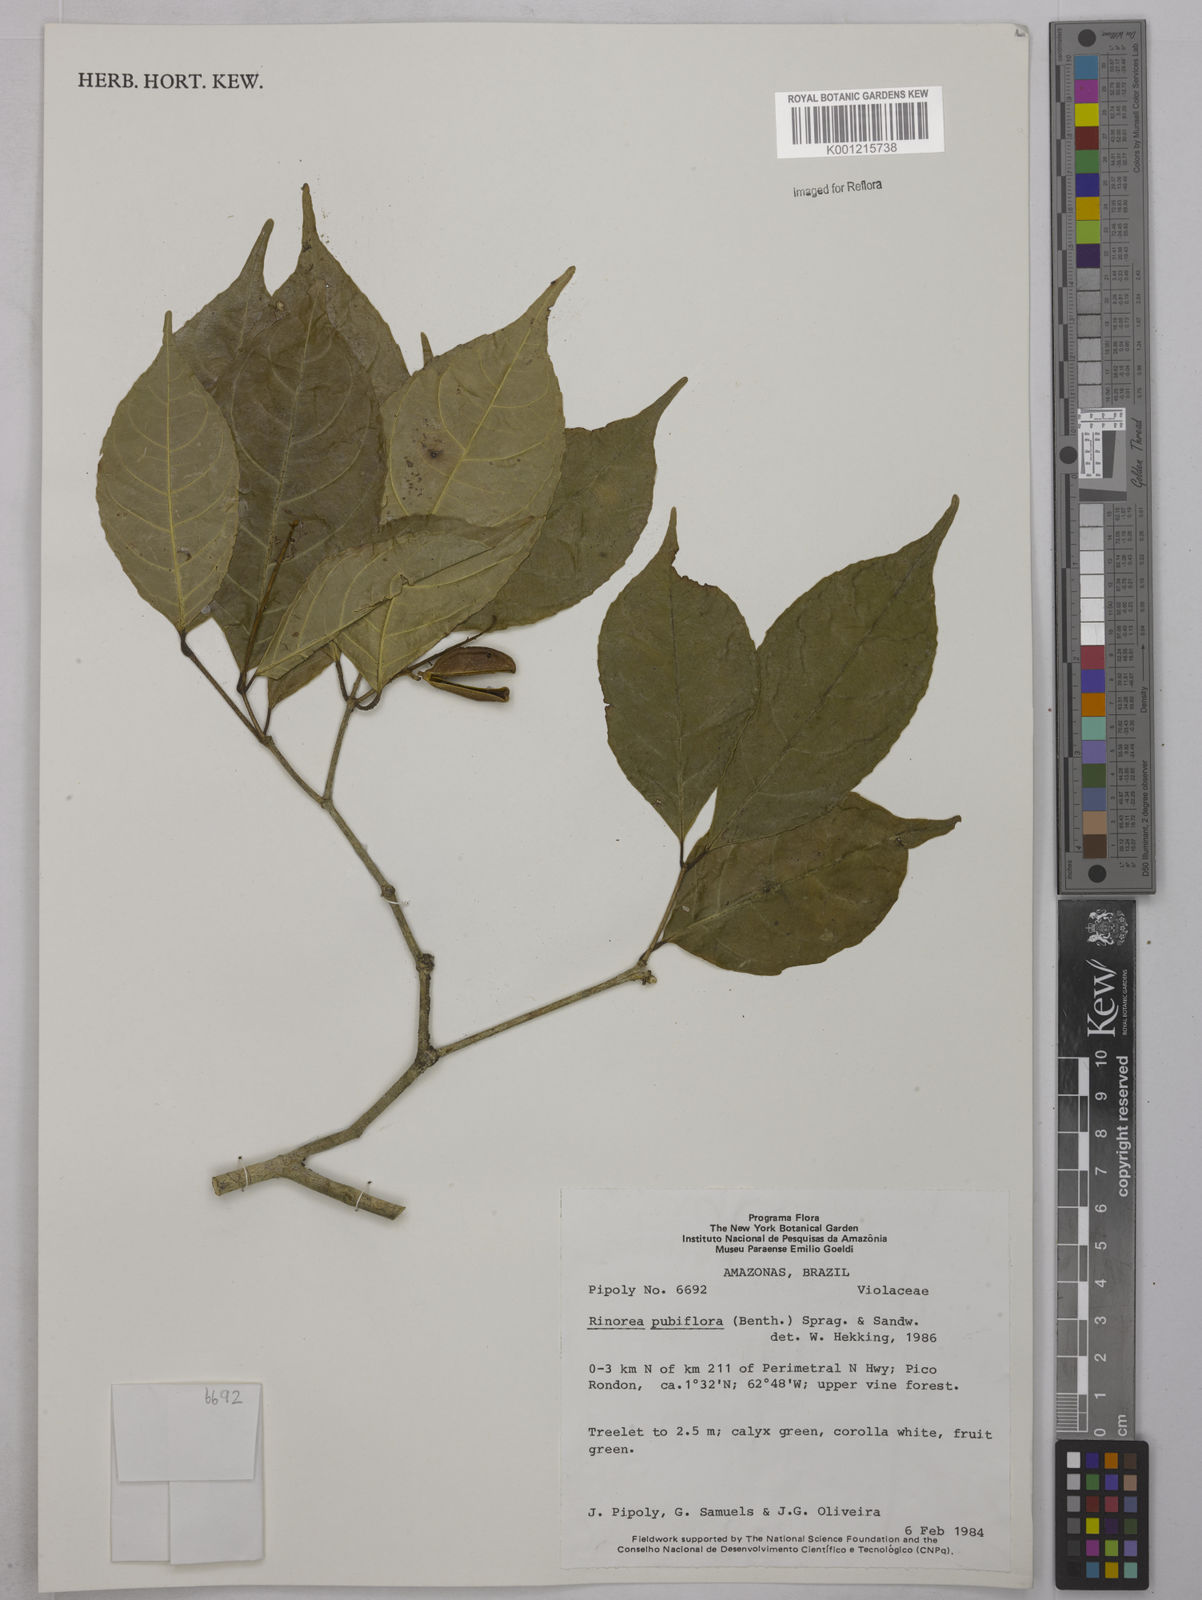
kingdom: Plantae
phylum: Tracheophyta
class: Magnoliopsida
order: Malpighiales
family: Violaceae
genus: Rinorea
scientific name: Rinorea pubiflora
